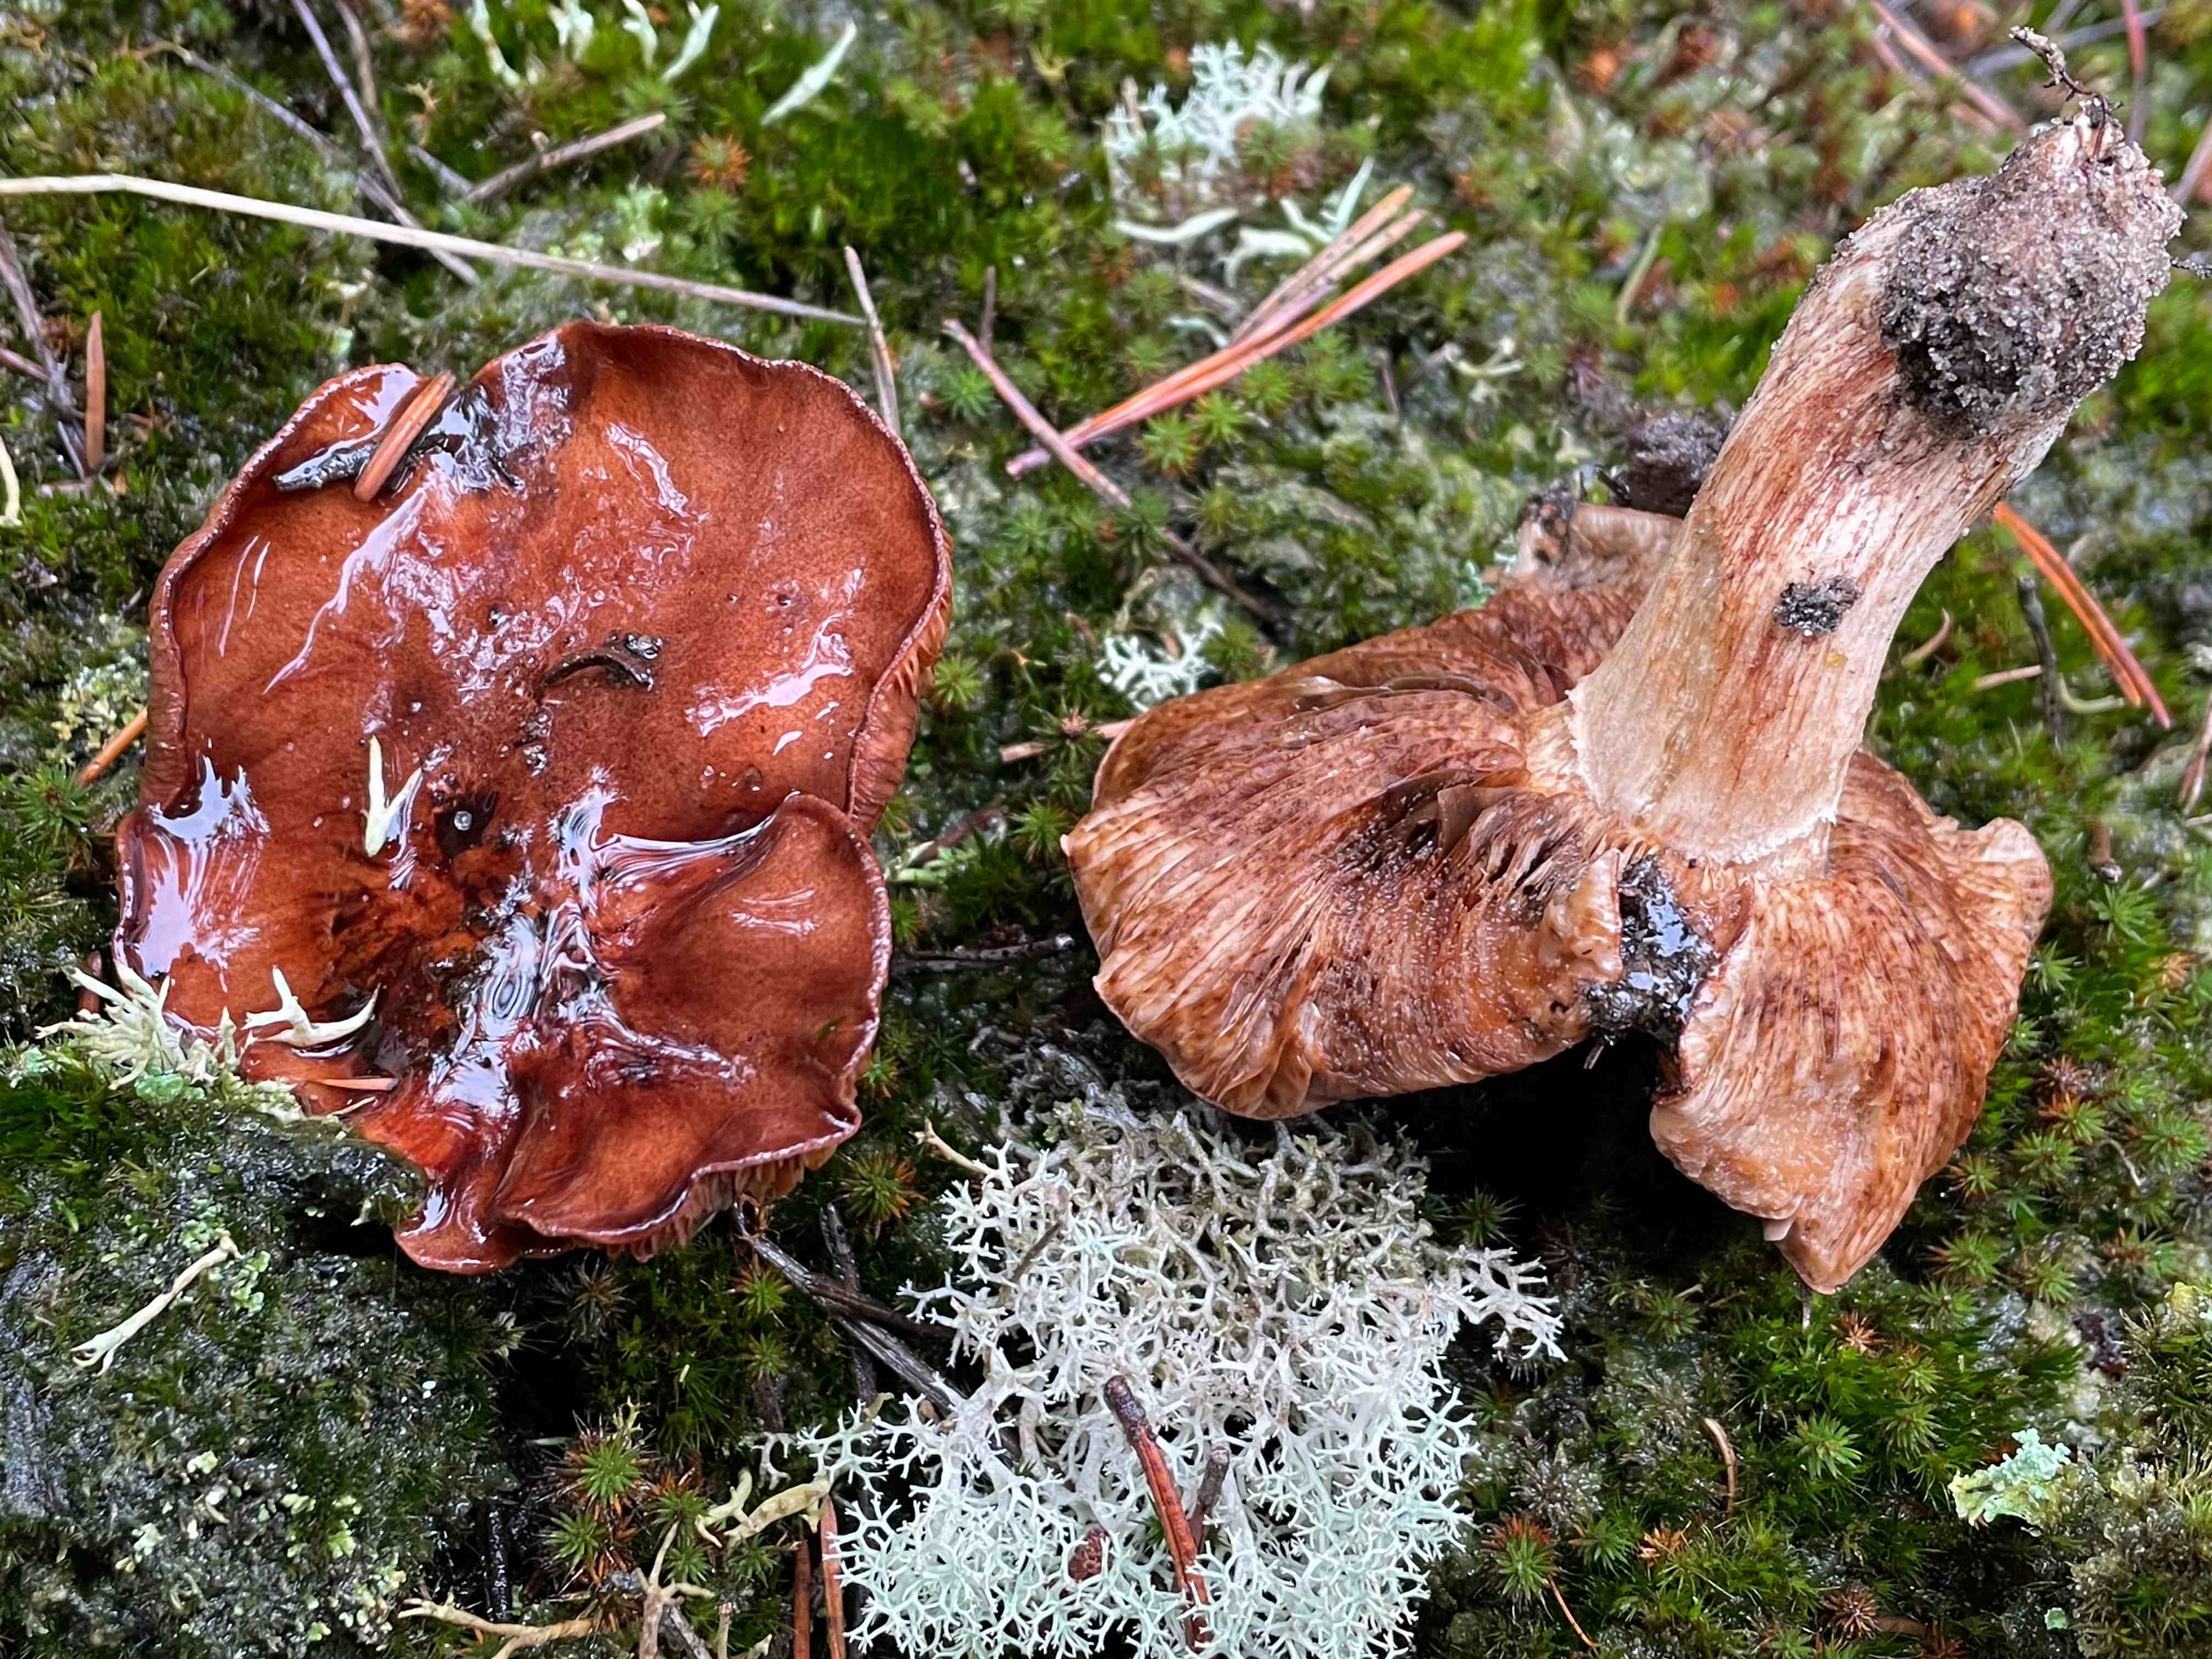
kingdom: Fungi
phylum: Basidiomycota
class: Agaricomycetes
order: Agaricales
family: Tricholomataceae
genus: Tricholoma
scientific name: Tricholoma pessundatum
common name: dråbeplettet ridderhat
